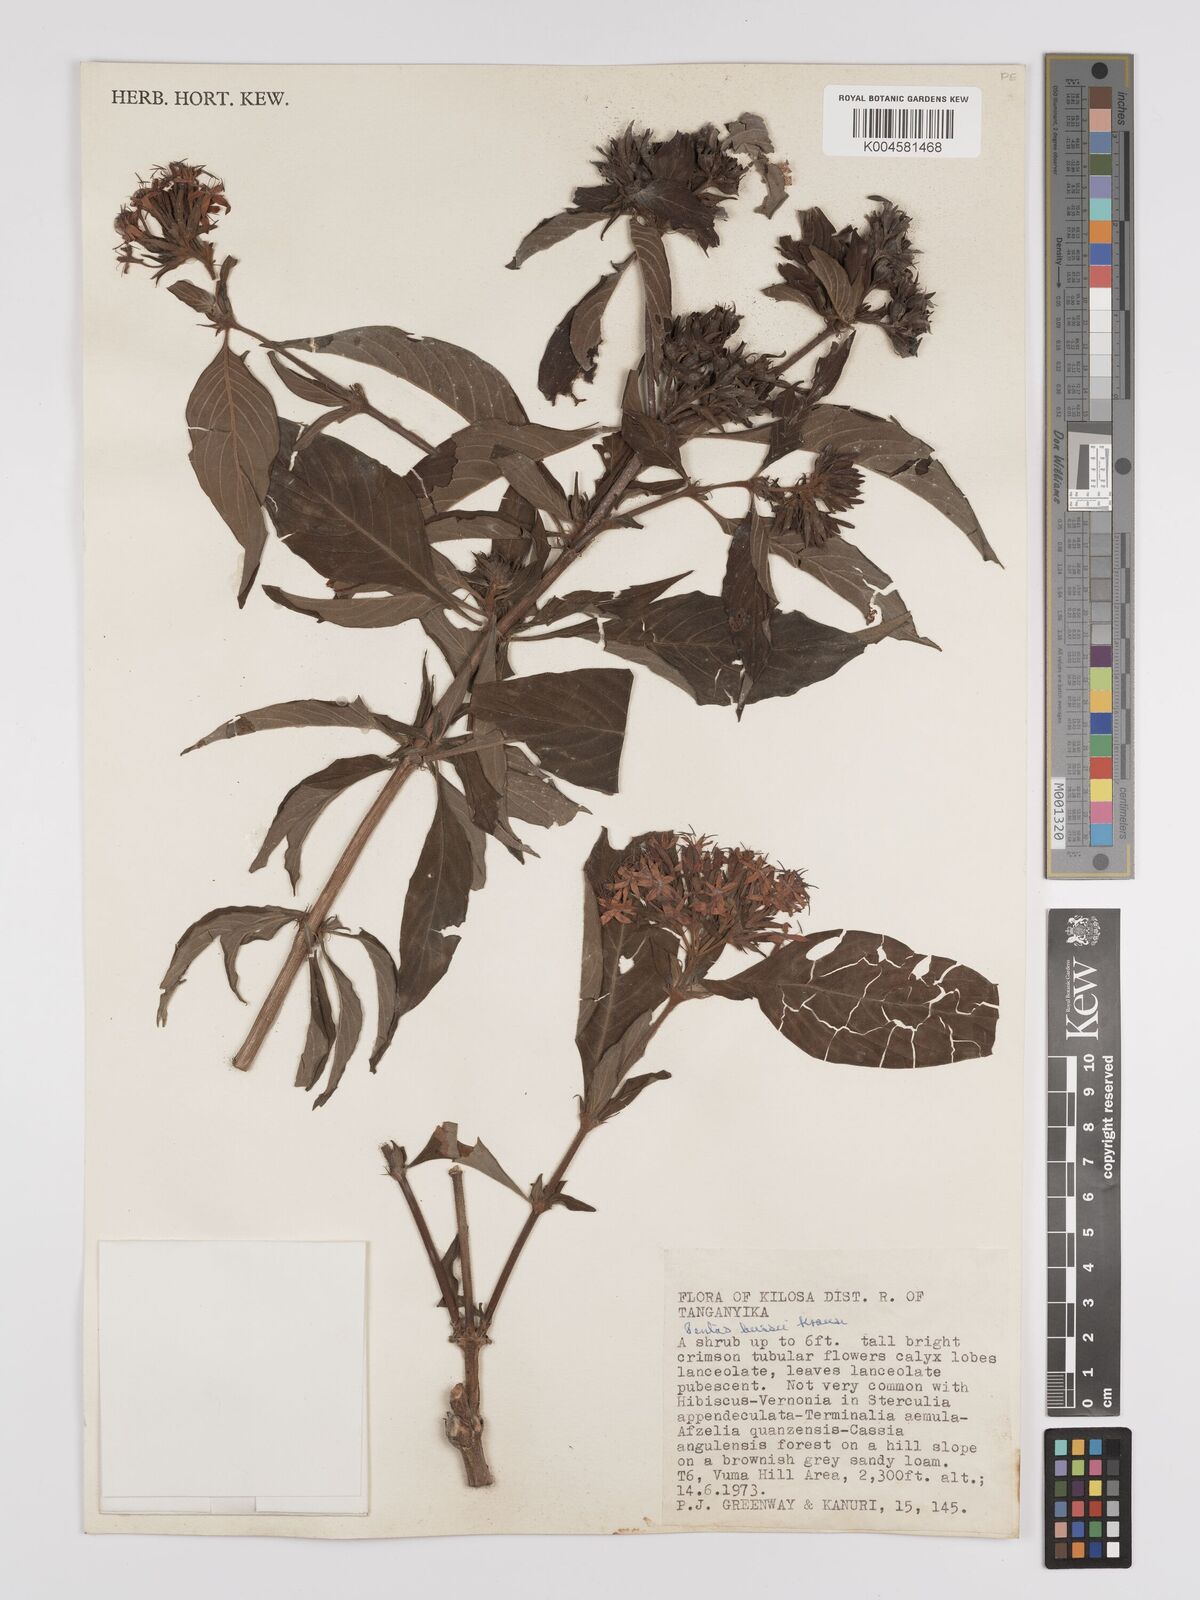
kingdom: Plantae
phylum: Tracheophyta
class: Magnoliopsida
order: Gentianales
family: Rubiaceae
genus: Rhodopentas
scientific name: Rhodopentas bussei
